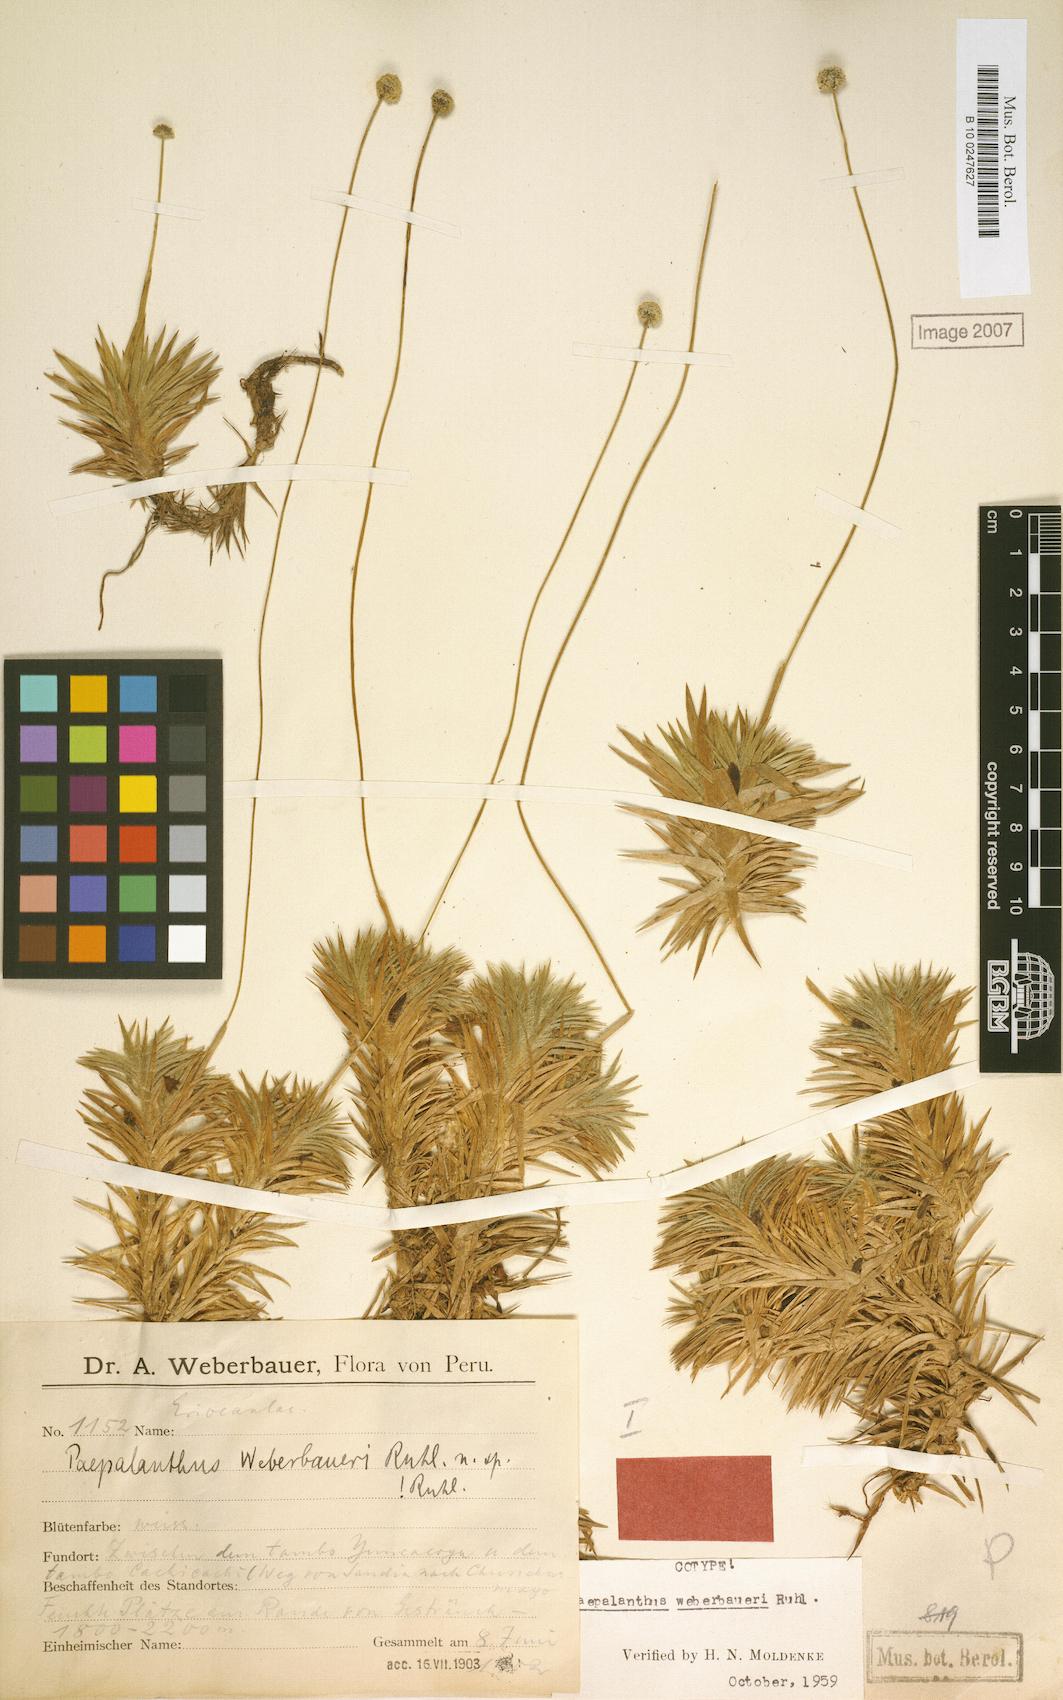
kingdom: Plantae
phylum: Tracheophyta
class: Liliopsida
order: Poales
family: Eriocaulaceae
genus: Paepalanthus
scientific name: Paepalanthus weberbaueri
